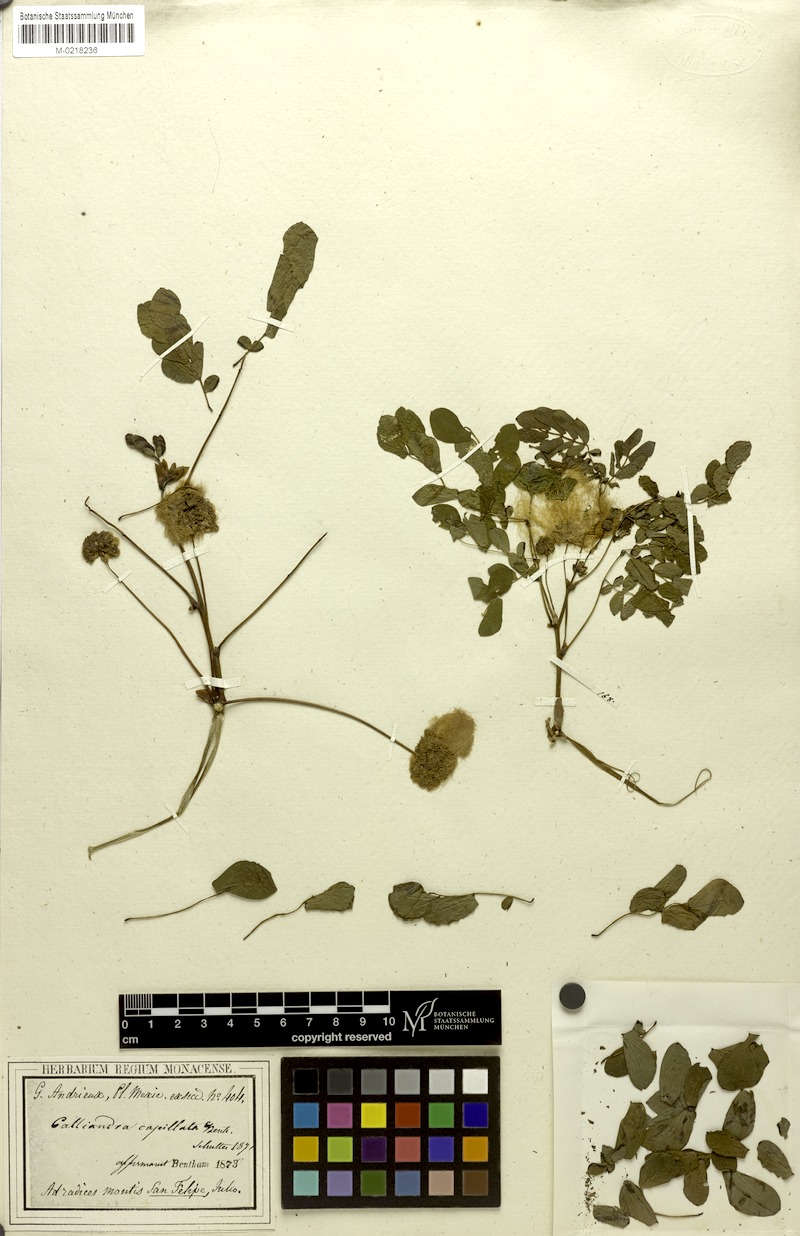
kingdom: Plantae
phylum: Tracheophyta
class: Magnoliopsida
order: Fabales
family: Fabaceae
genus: Zapoteca
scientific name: Zapoteca formosa
